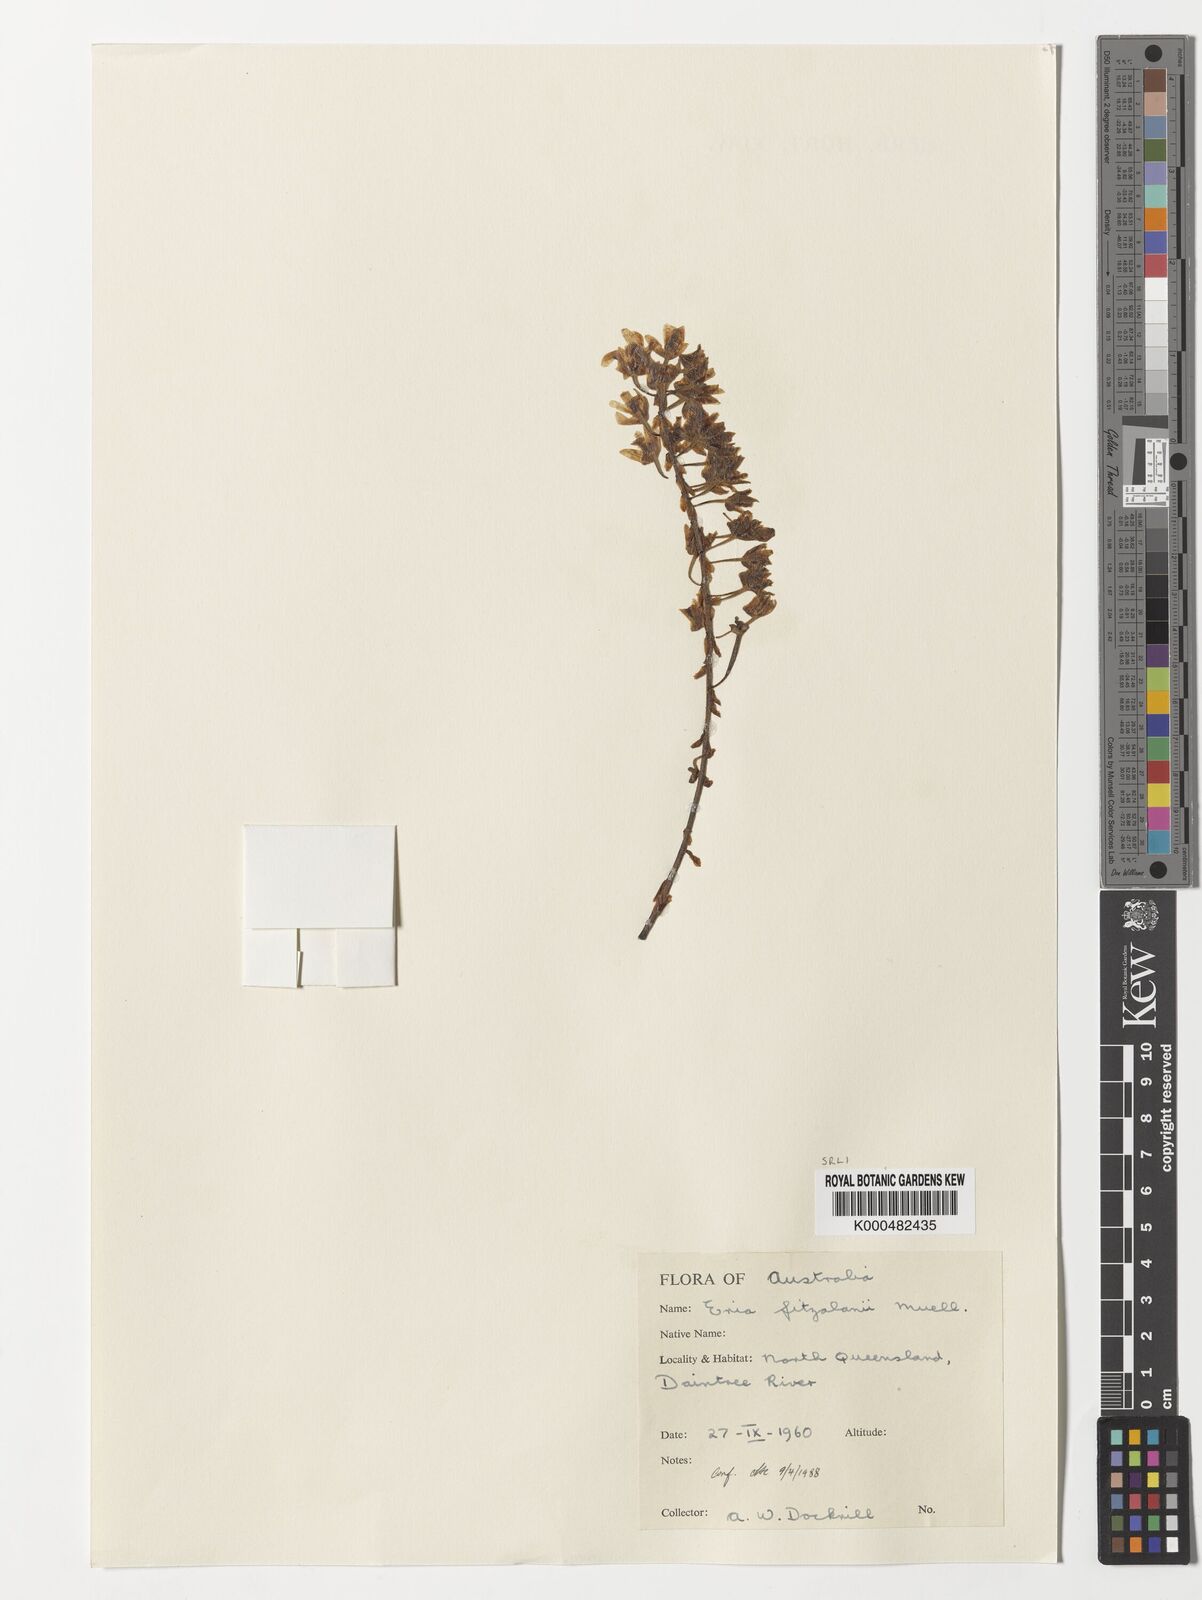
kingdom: Plantae
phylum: Tracheophyta
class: Liliopsida
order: Asparagales
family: Orchidaceae
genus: Pinalia
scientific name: Pinalia fitzalanii
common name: Common fuzz orchid
